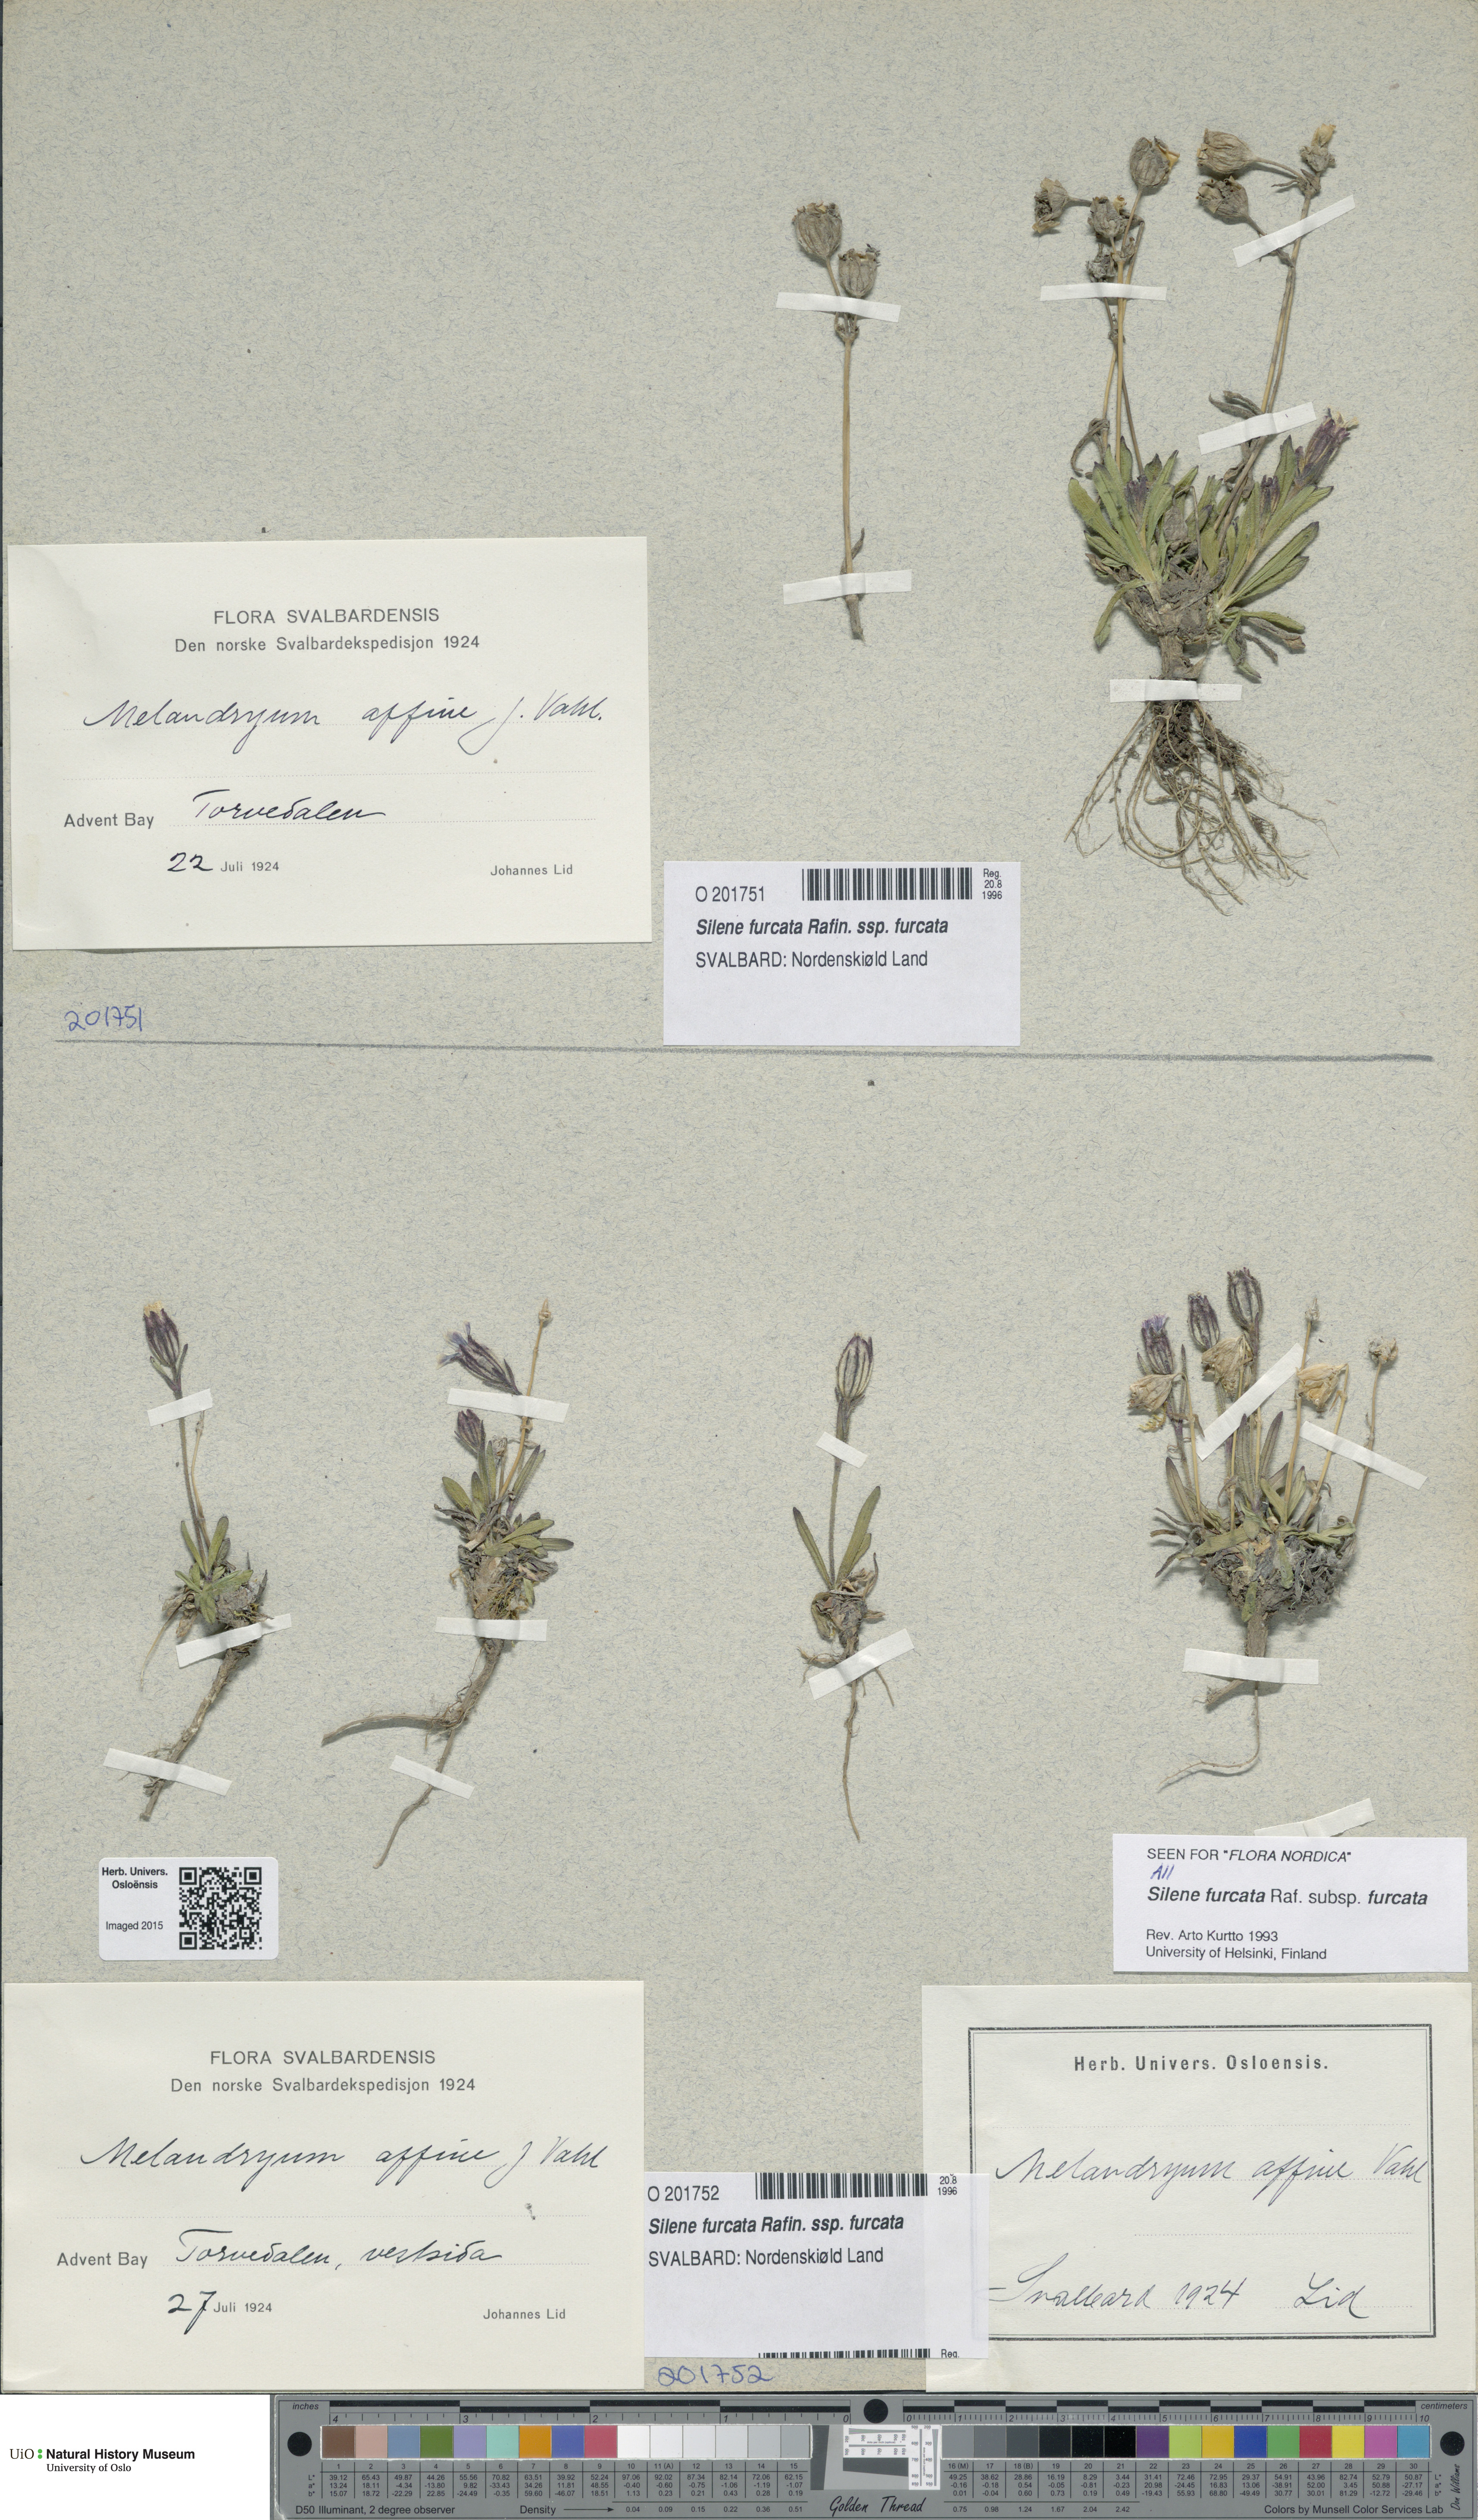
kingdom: Plantae
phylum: Tracheophyta
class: Magnoliopsida
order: Caryophyllales
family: Caryophyllaceae
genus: Silene
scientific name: Silene involucrata
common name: Greater arctic campion
